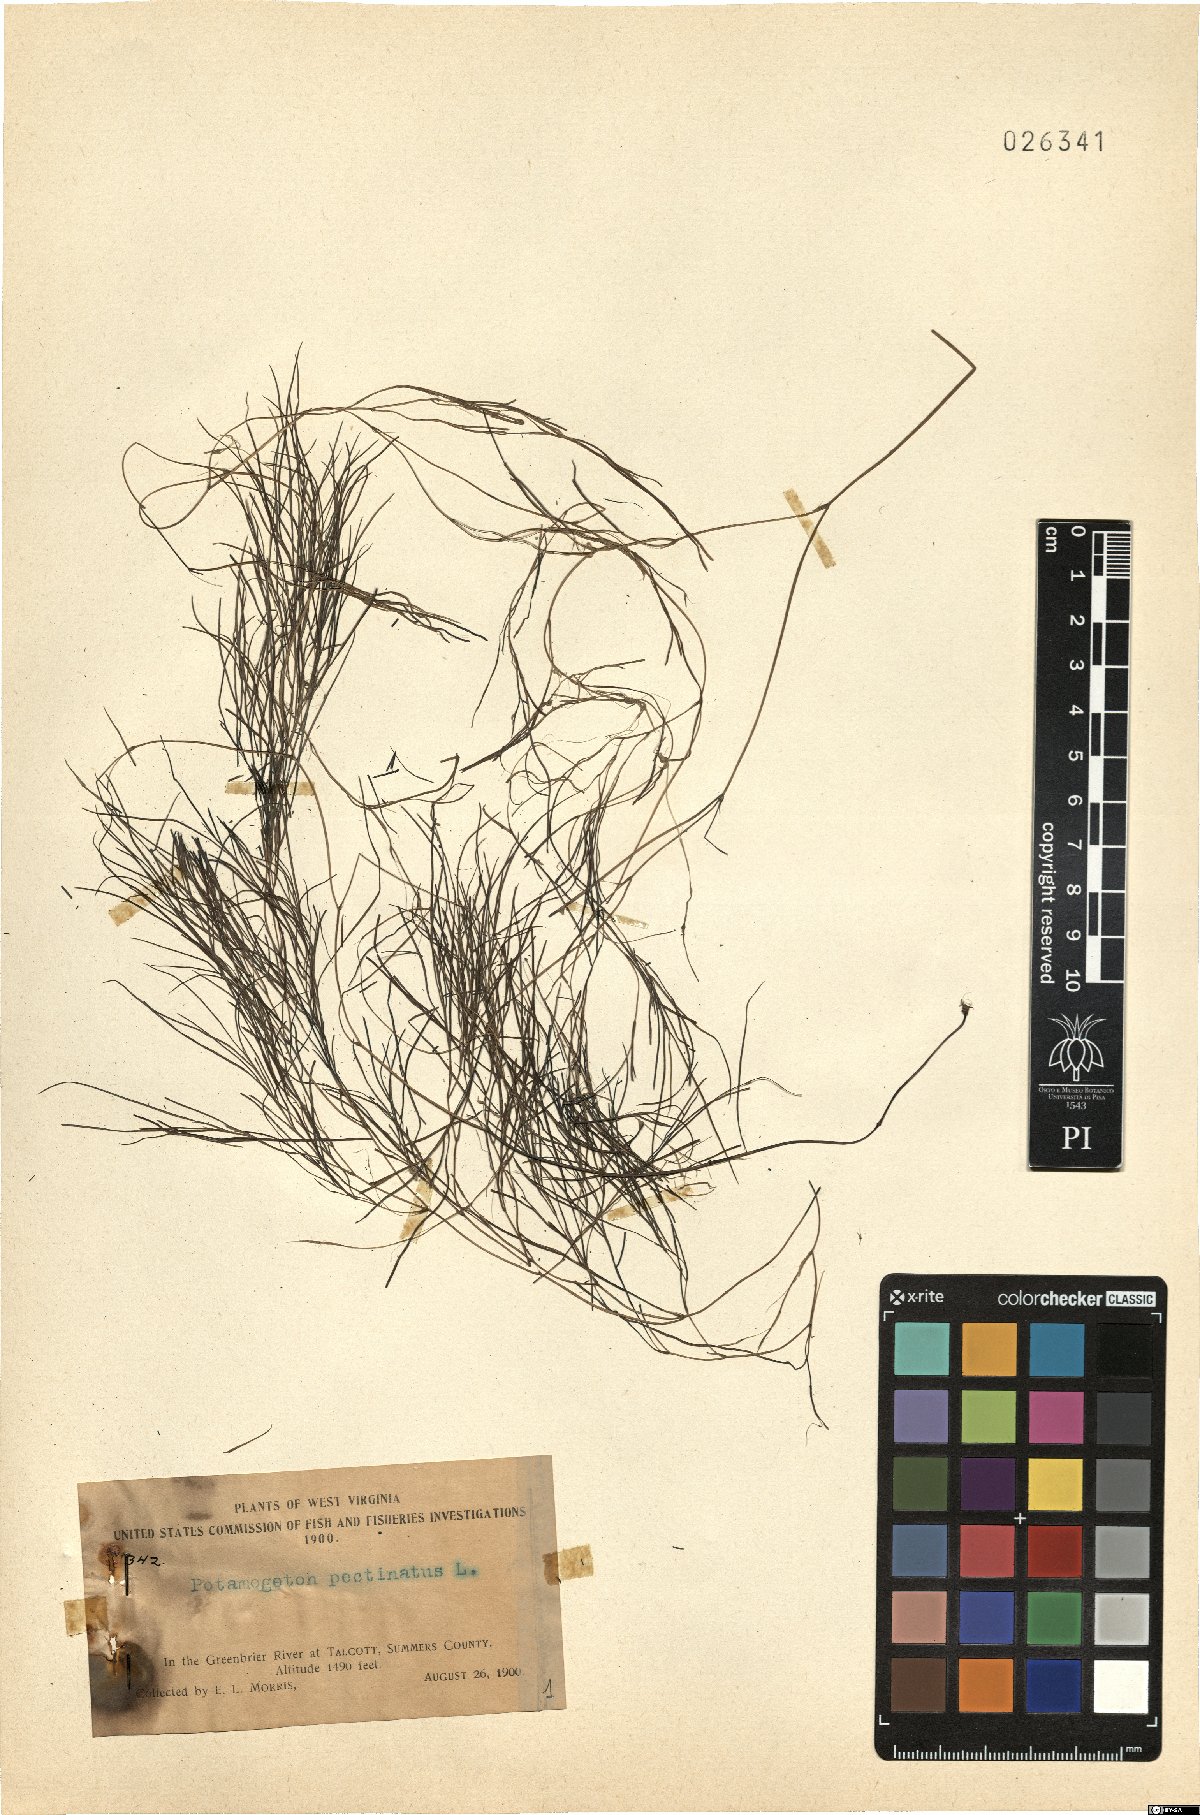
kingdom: Plantae
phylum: Tracheophyta
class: Liliopsida
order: Alismatales
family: Potamogetonaceae
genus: Stuckenia
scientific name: Stuckenia pectinata
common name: Sago pondweed
